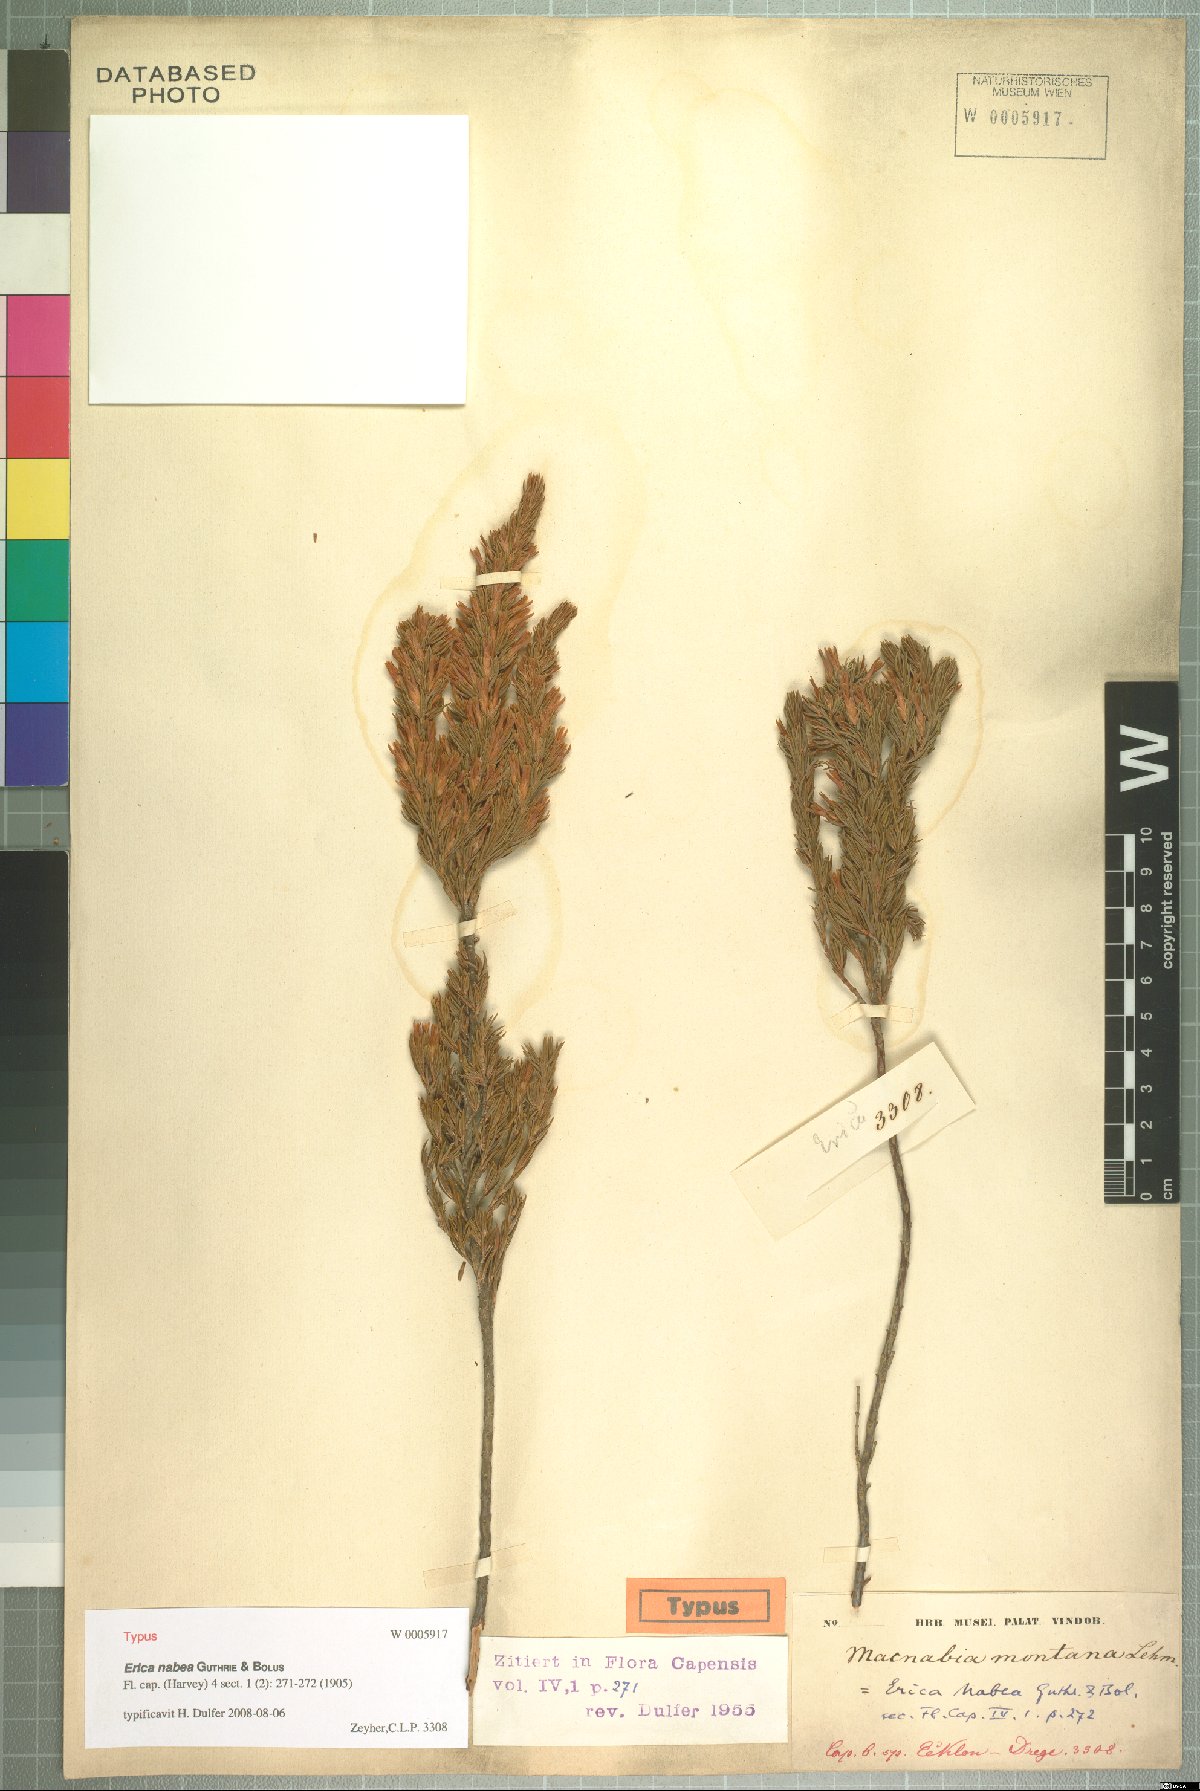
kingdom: Plantae
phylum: Tracheophyta
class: Magnoliopsida
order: Ericales
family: Ericaceae
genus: Erica
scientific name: Erica nabea
